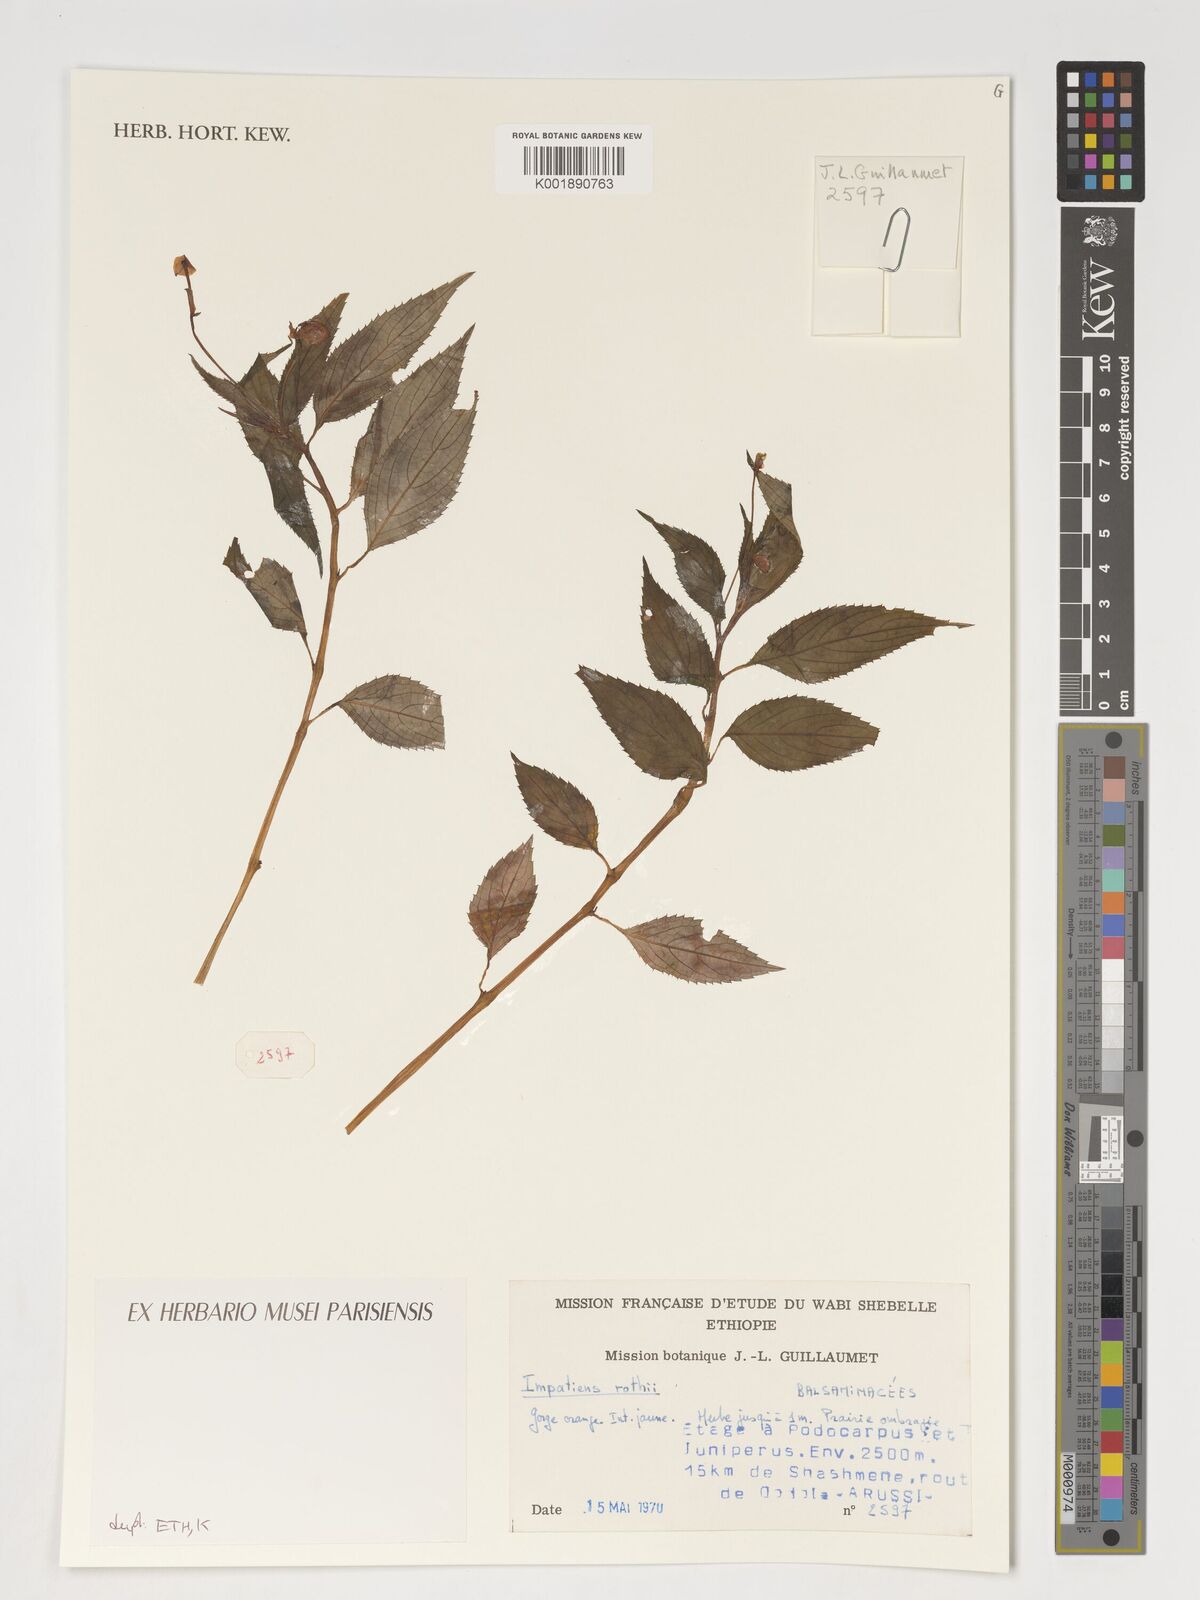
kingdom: Plantae
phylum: Tracheophyta
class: Magnoliopsida
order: Ericales
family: Balsaminaceae
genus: Impatiens
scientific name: Impatiens rothii
